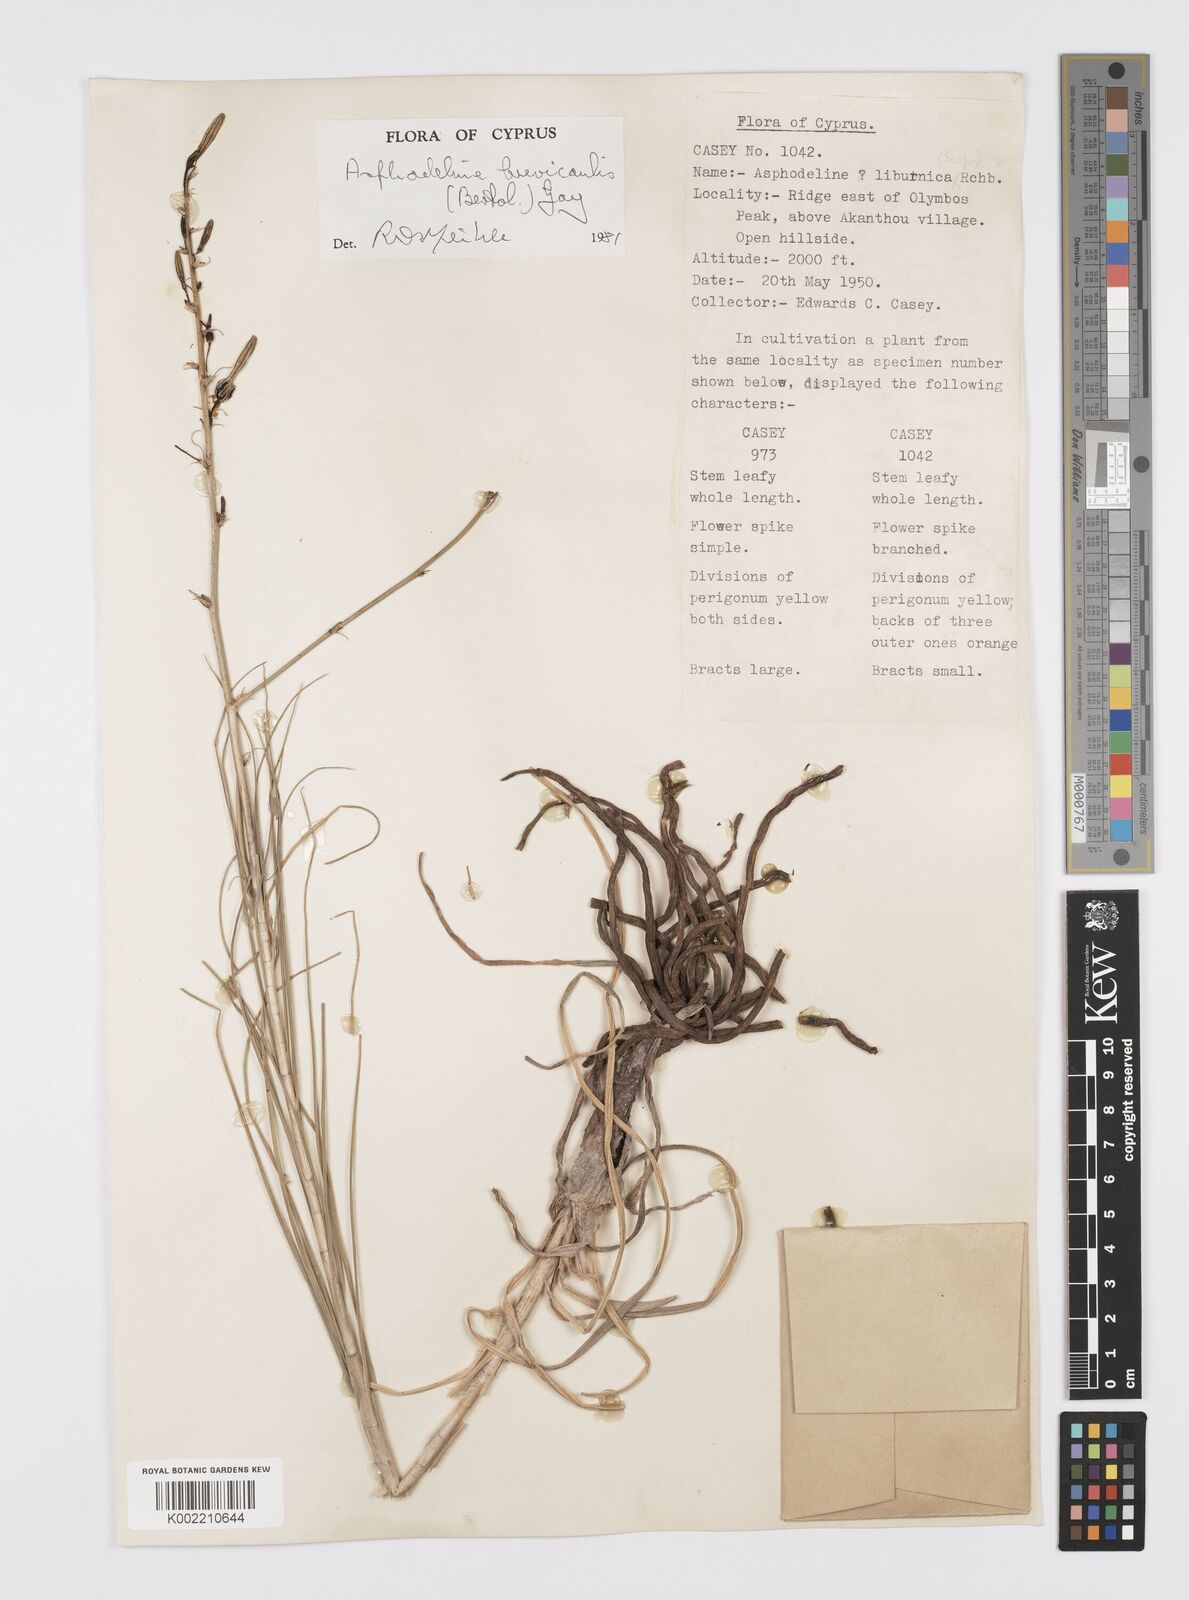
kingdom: Plantae
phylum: Tracheophyta
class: Liliopsida
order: Asparagales
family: Asphodelaceae
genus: Asphodeline
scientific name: Asphodeline brevicaulis
